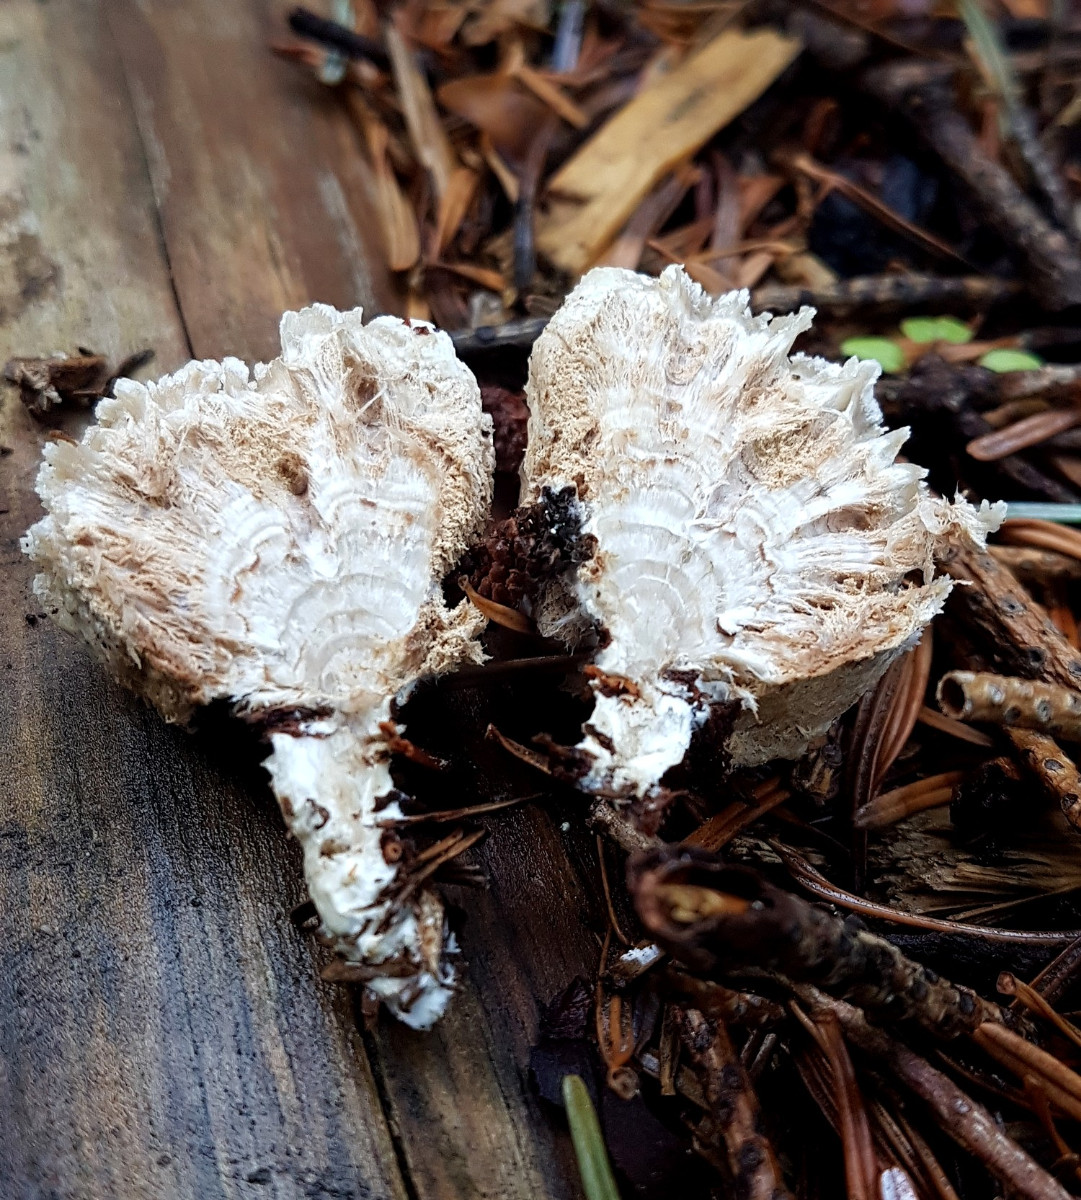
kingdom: Fungi
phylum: Basidiomycota
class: Agaricomycetes
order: Polyporales
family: Dacryobolaceae
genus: Postia
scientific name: Postia ptychogaster
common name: støvende kødporesvamp
